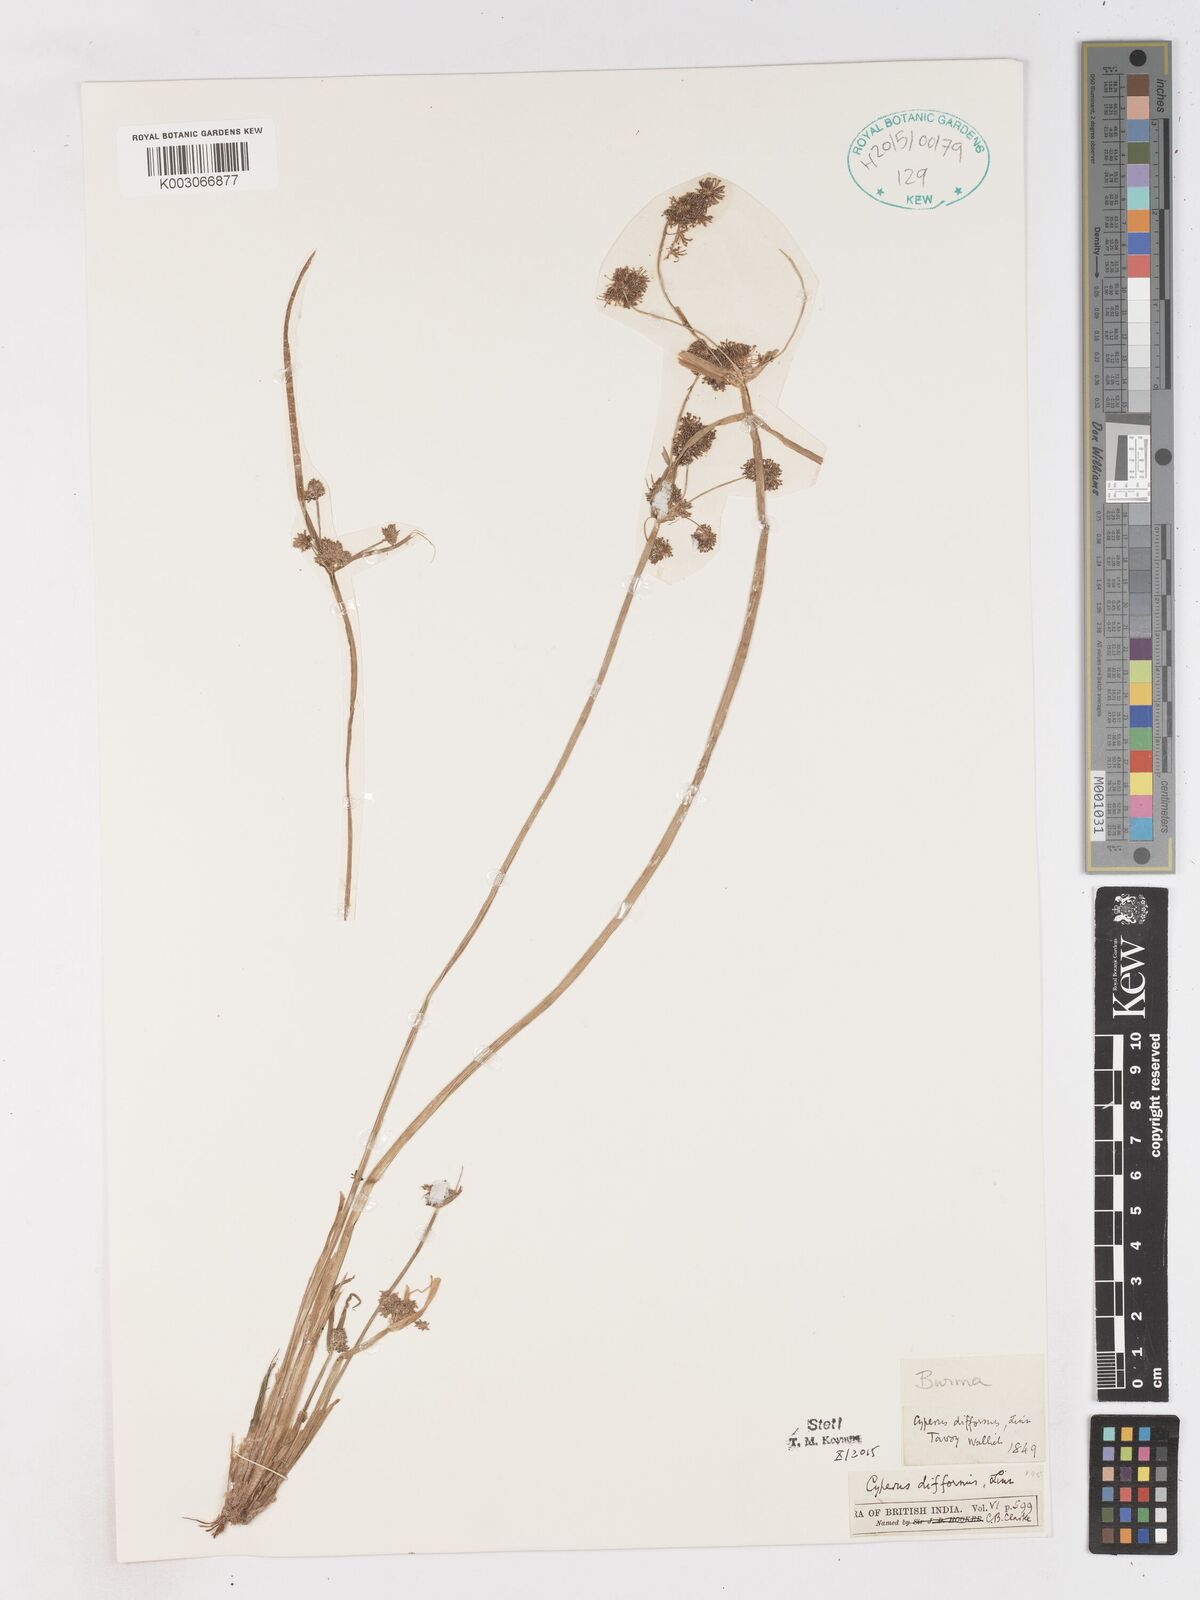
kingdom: Plantae
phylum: Tracheophyta
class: Liliopsida
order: Poales
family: Cyperaceae
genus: Cyperus
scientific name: Cyperus difformis
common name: Variable flatsedge
